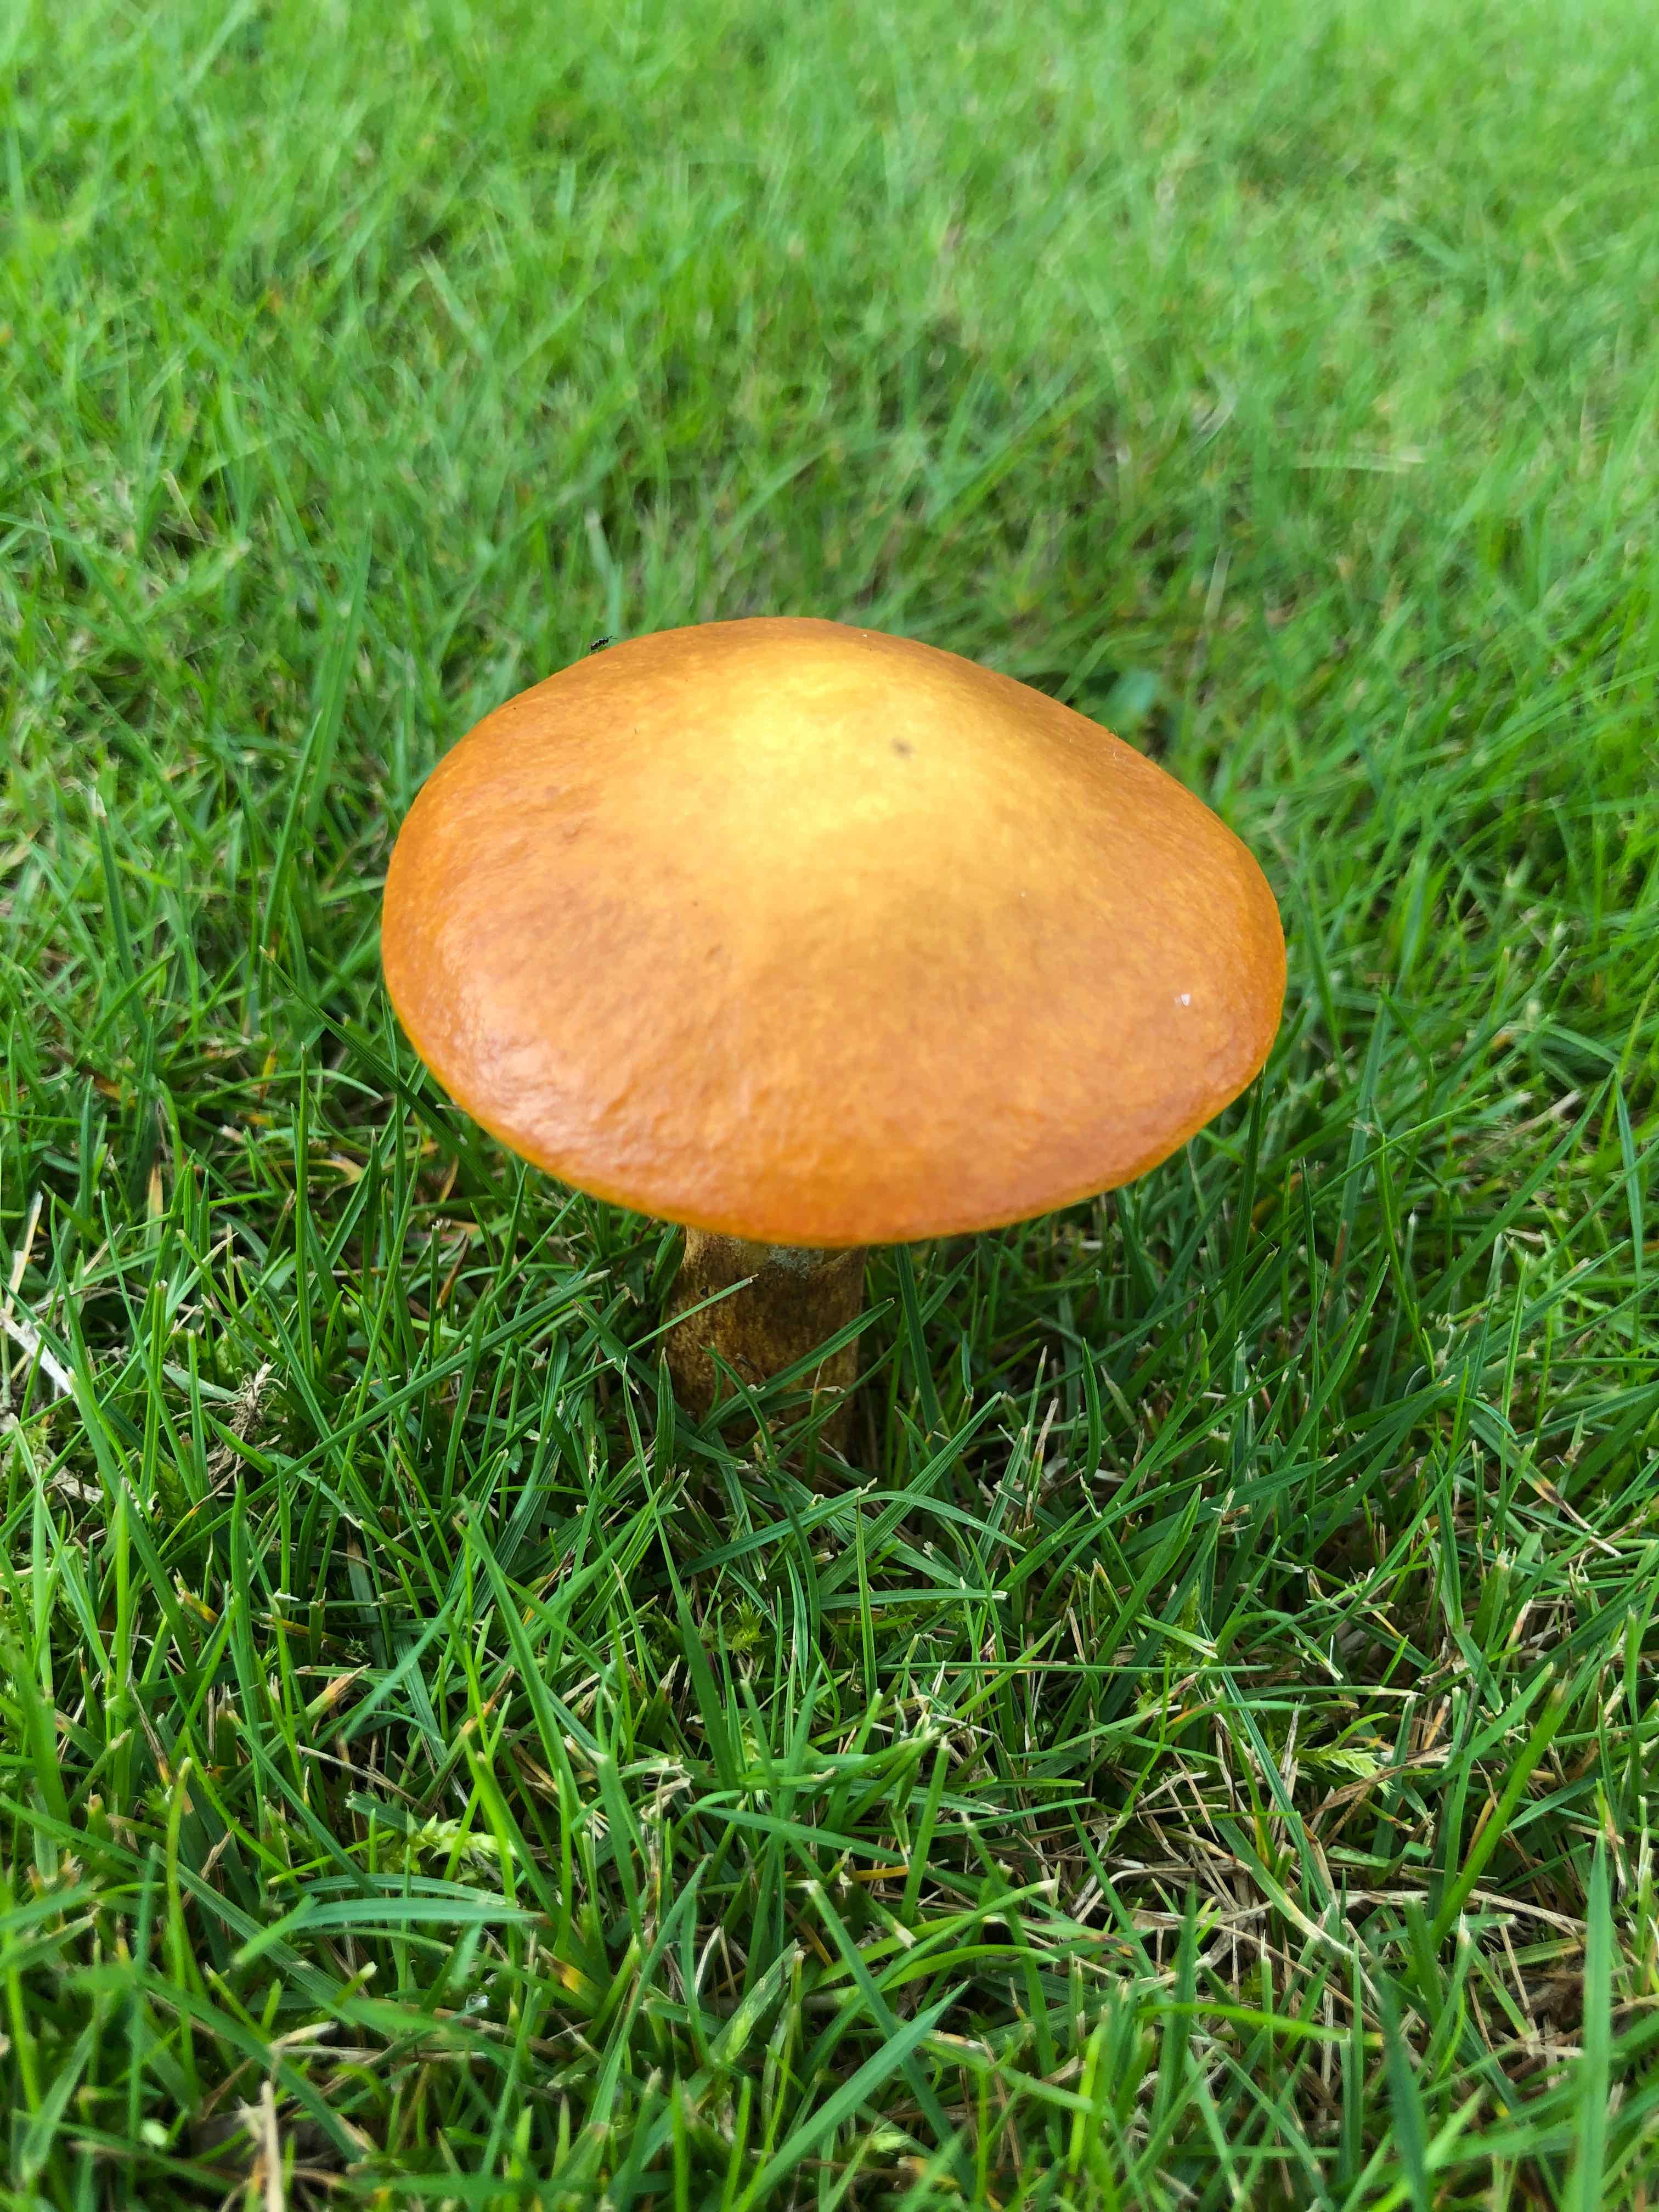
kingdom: Fungi
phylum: Basidiomycota
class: Agaricomycetes
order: Boletales
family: Suillaceae
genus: Suillus
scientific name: Suillus grevillei
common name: lærke-slimrørhat
